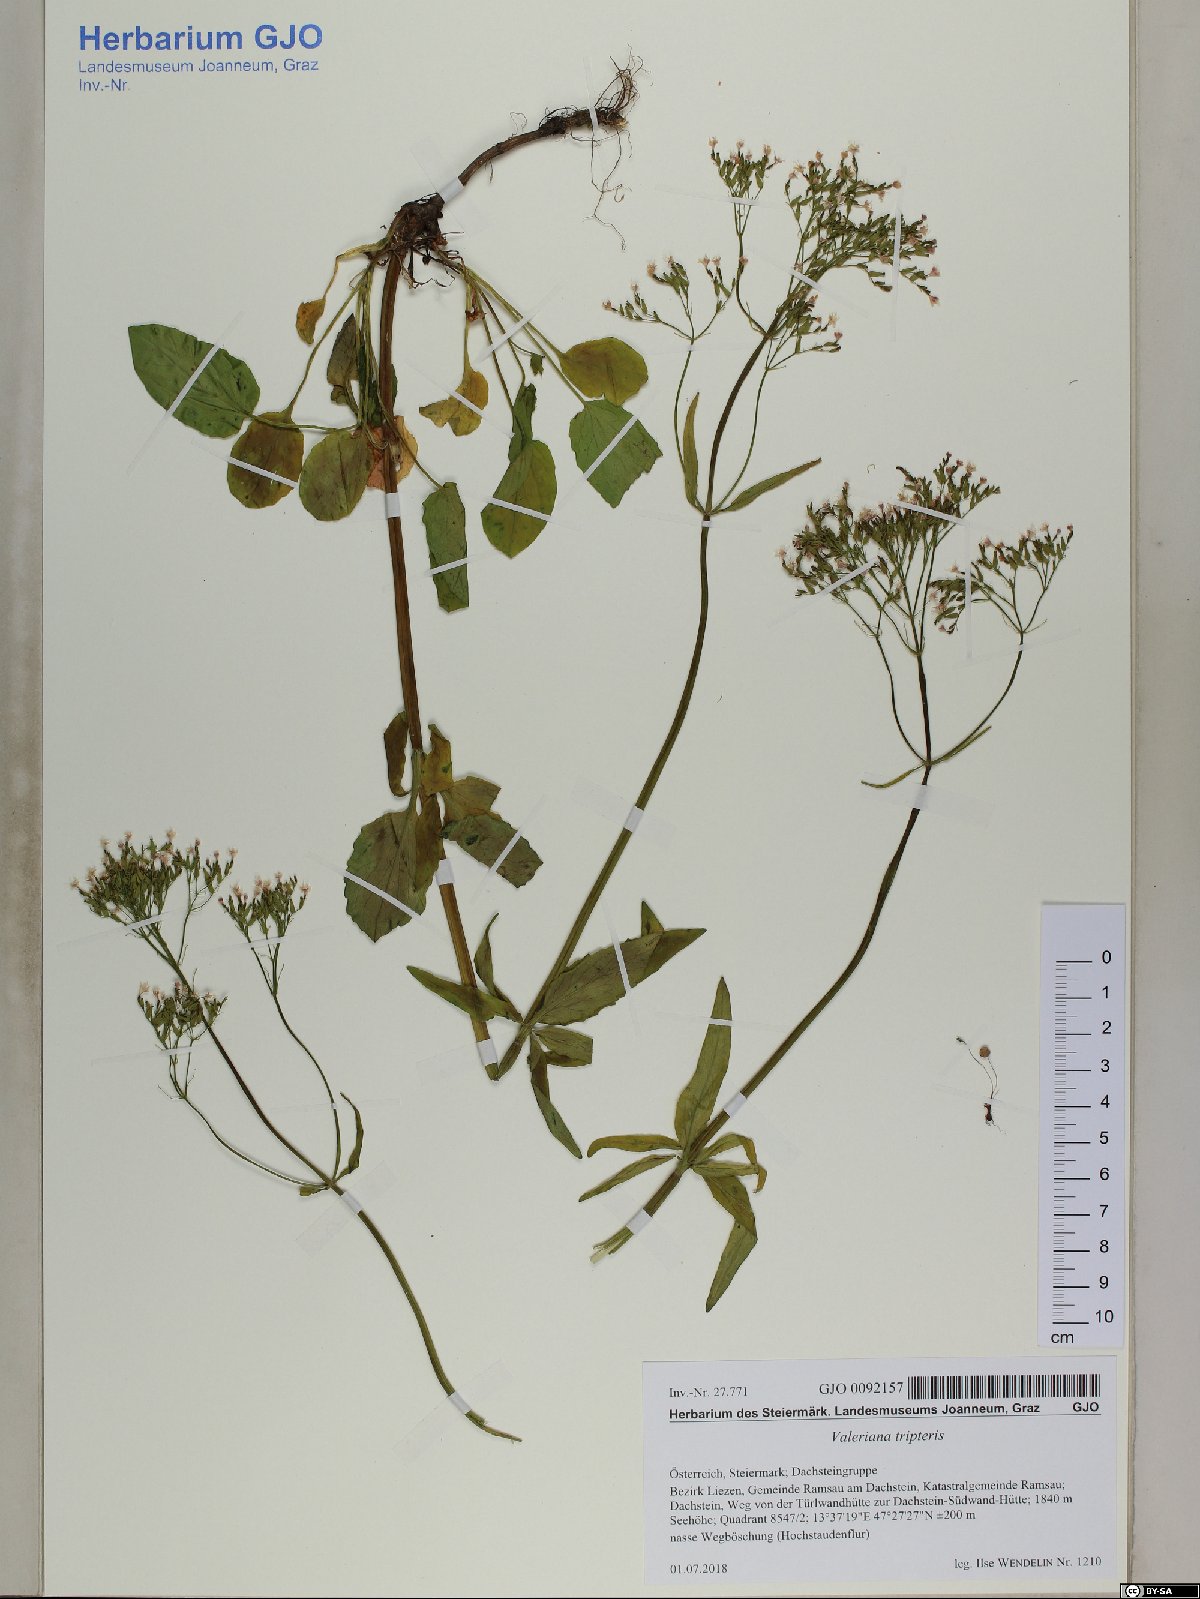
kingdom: Plantae
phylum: Tracheophyta
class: Magnoliopsida
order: Dipsacales
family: Caprifoliaceae
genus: Valeriana
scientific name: Valeriana tripteris
